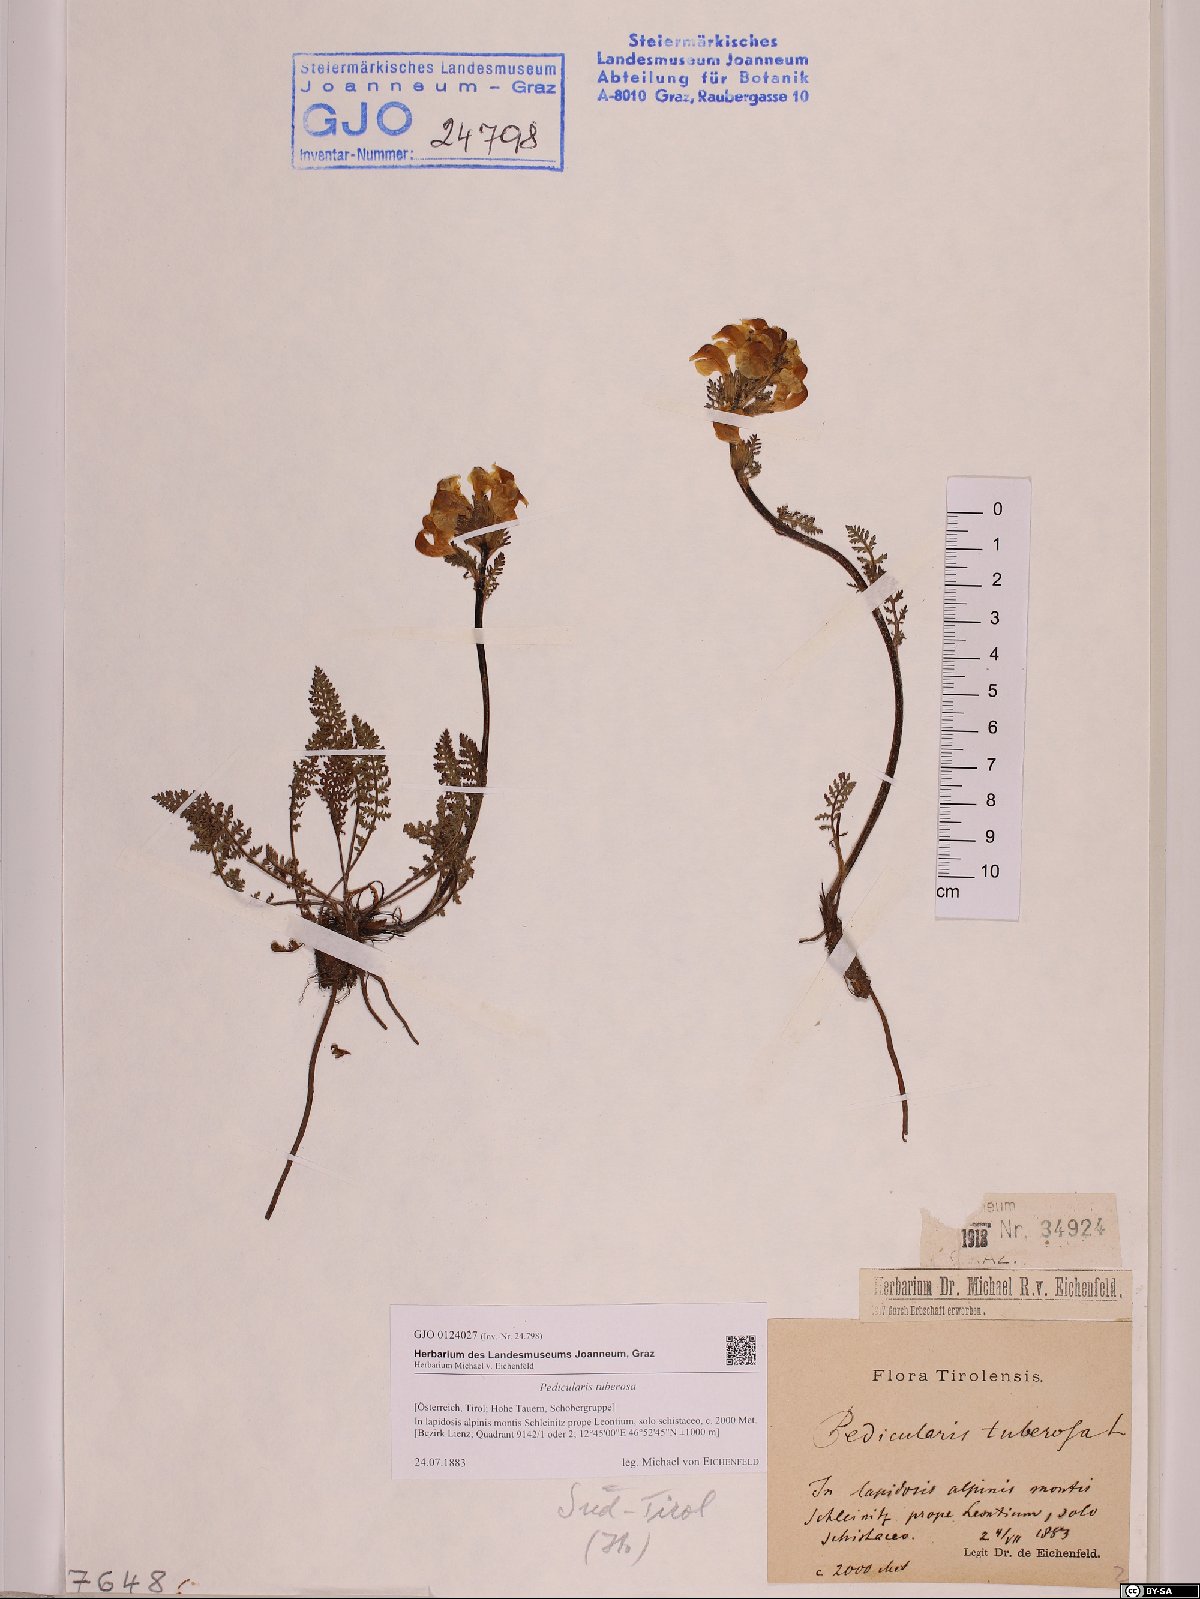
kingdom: Plantae
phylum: Tracheophyta
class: Magnoliopsida
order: Lamiales
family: Orobanchaceae
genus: Pedicularis
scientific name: Pedicularis tuberosa
